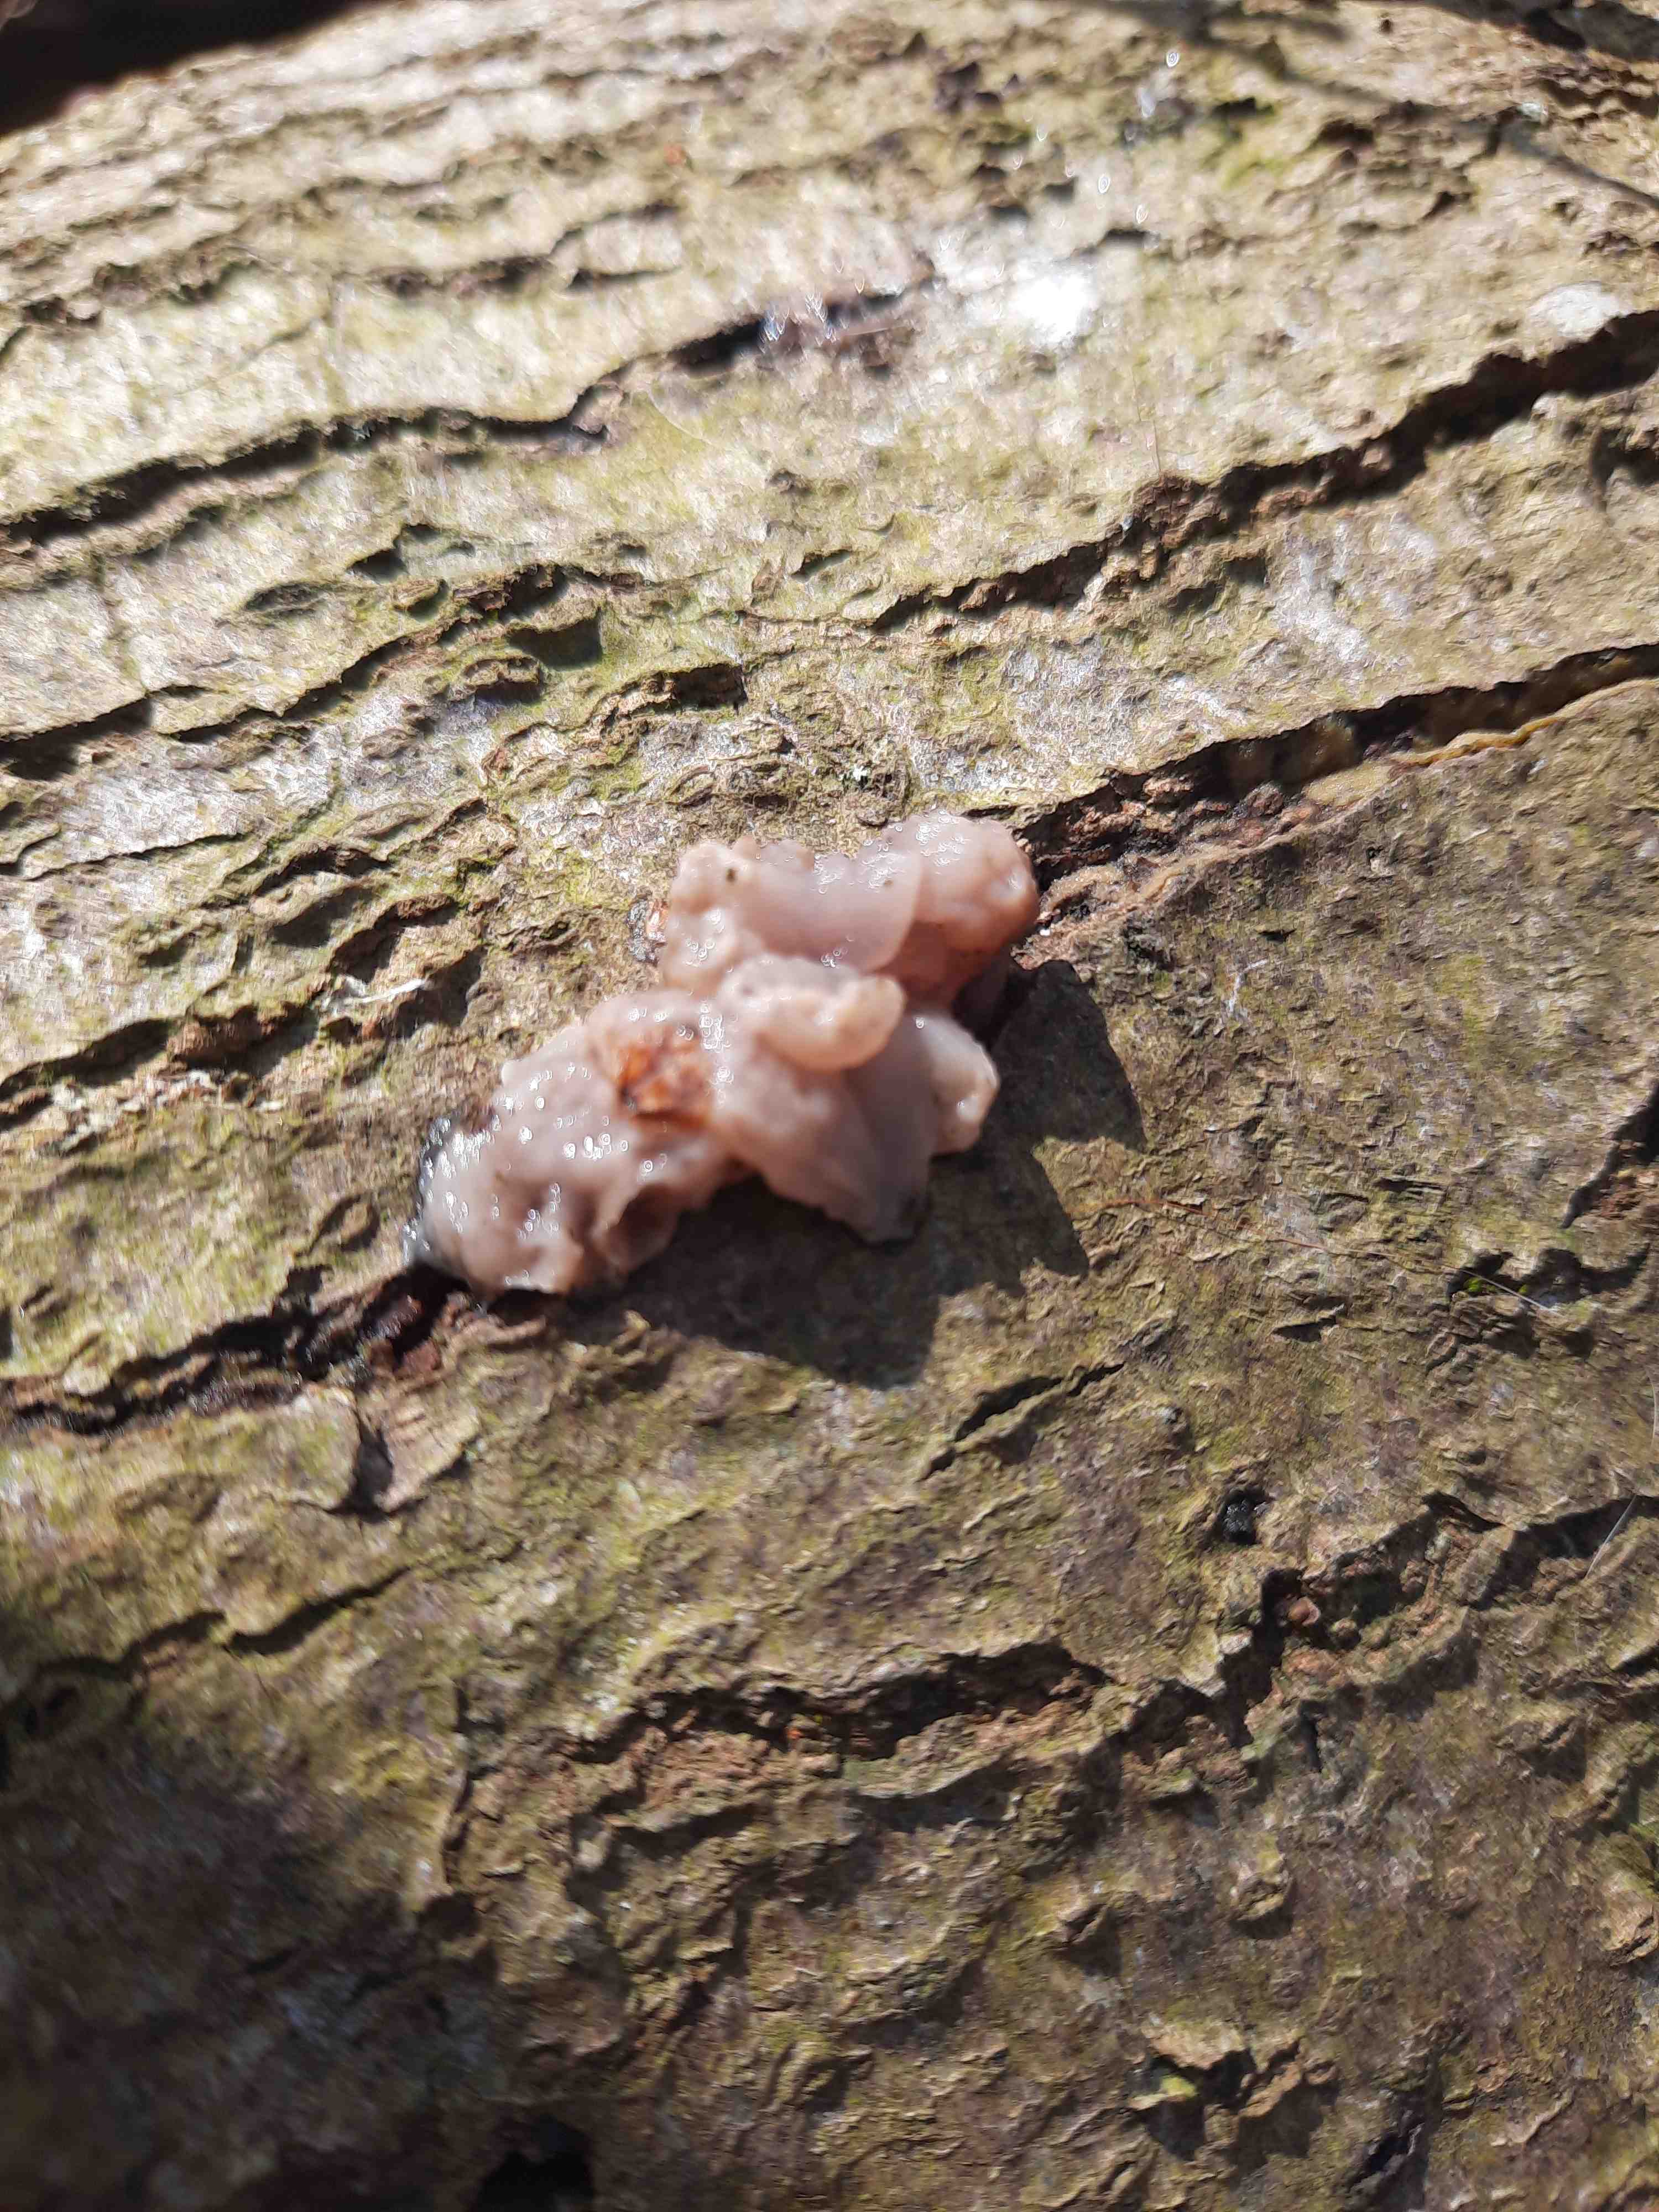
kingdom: Fungi
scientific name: Fungi
